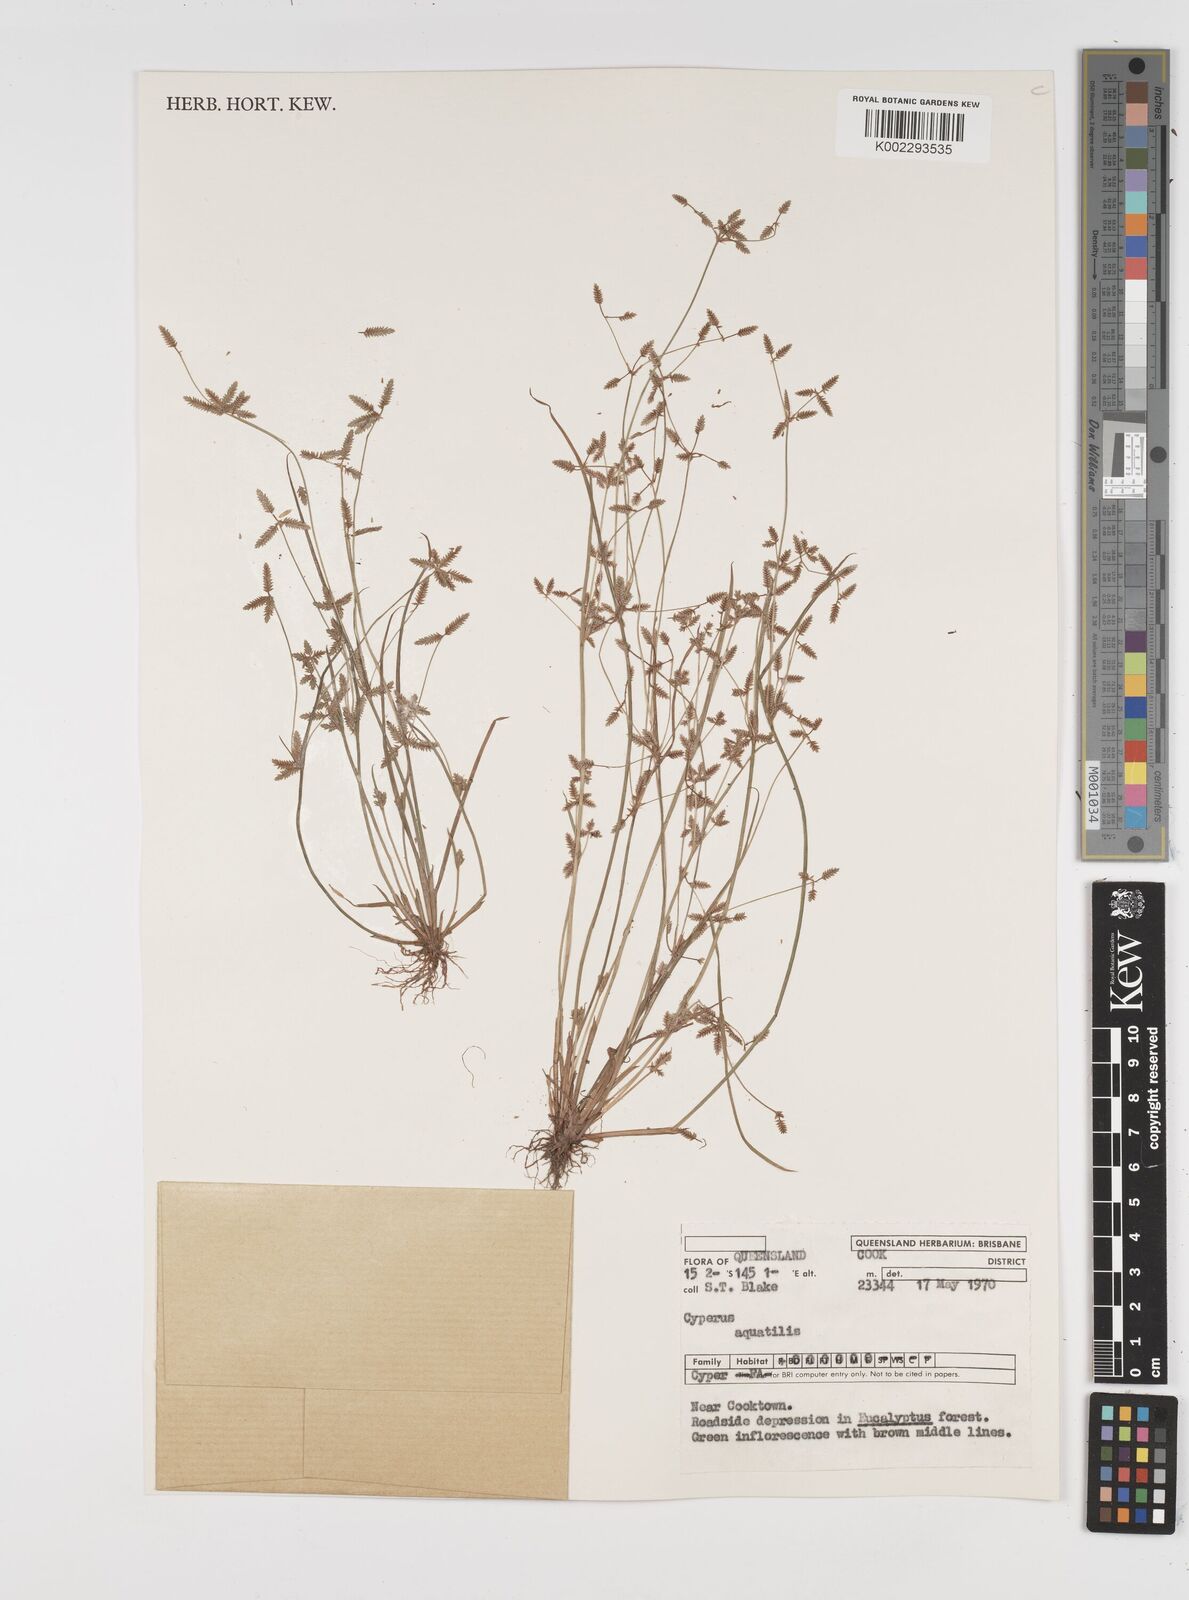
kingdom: Plantae
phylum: Tracheophyta
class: Liliopsida
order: Poales
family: Cyperaceae
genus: Cyperus
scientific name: Cyperus aquatilis
